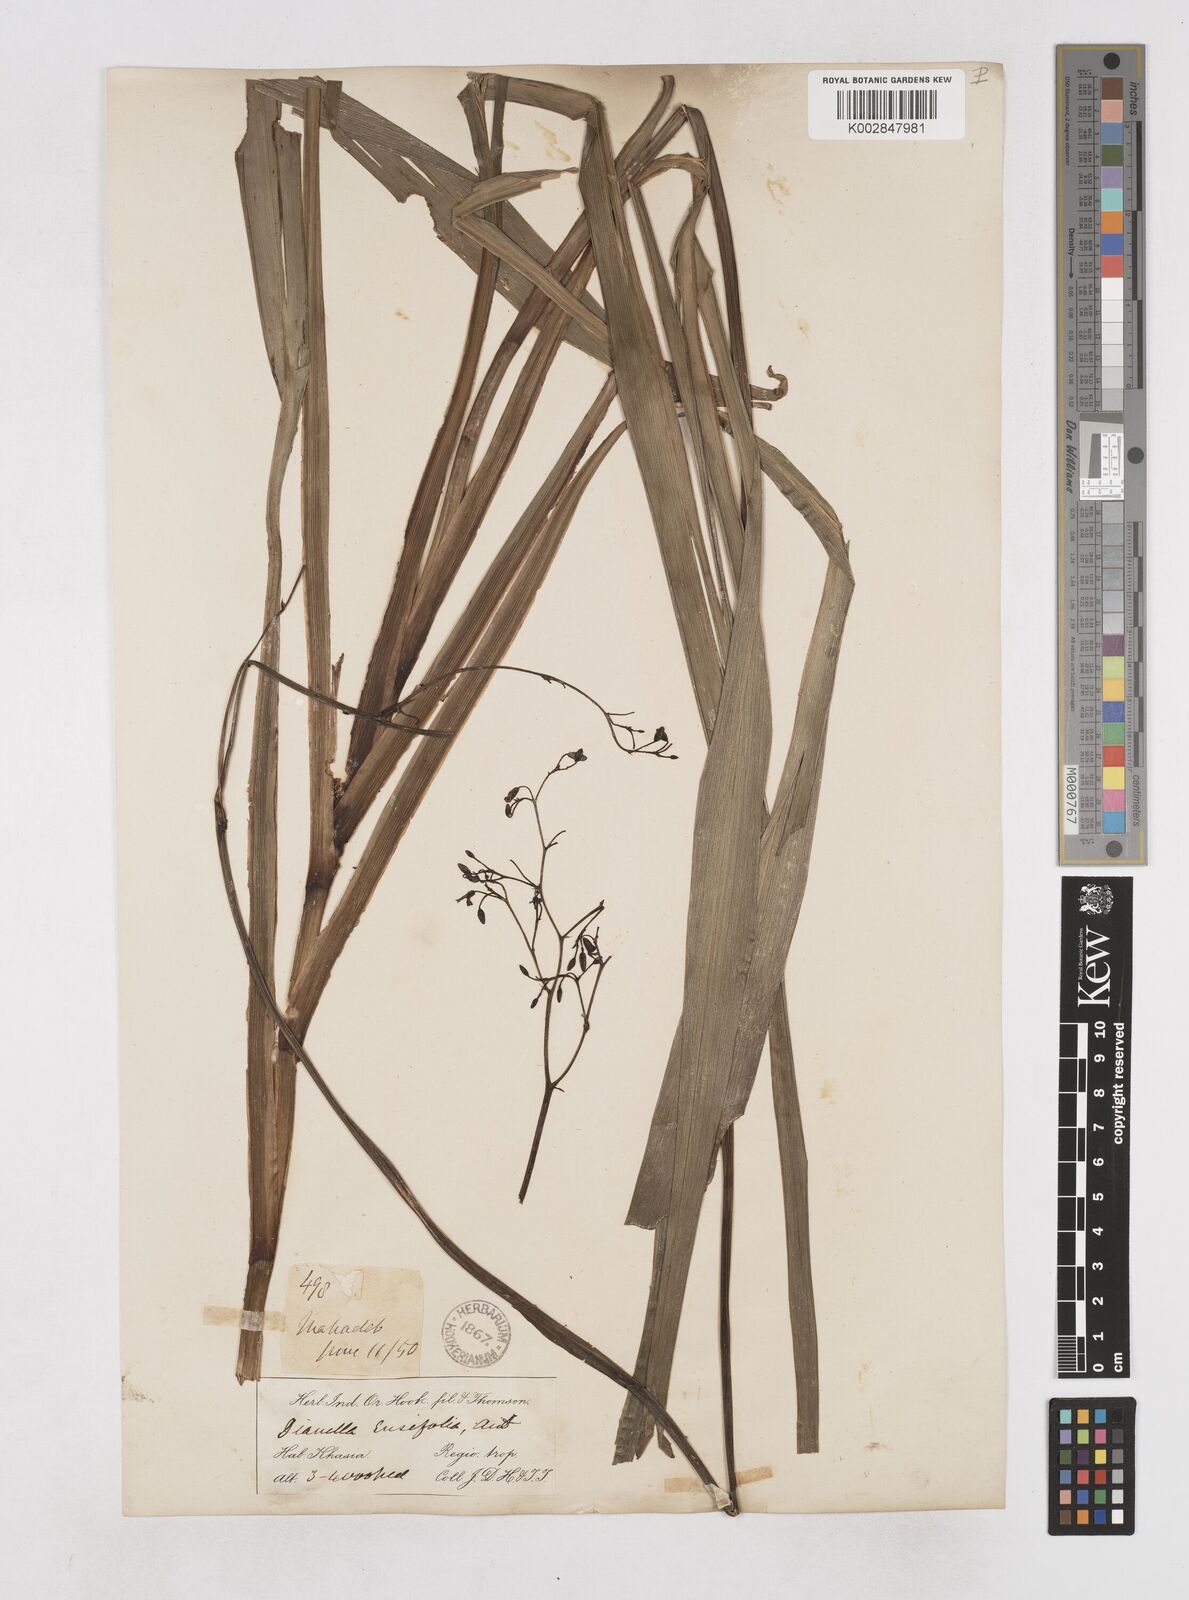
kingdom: Plantae
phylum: Tracheophyta
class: Liliopsida
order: Asparagales
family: Asphodelaceae
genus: Dianella
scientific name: Dianella ensifolia
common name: New zealand lilyplant
